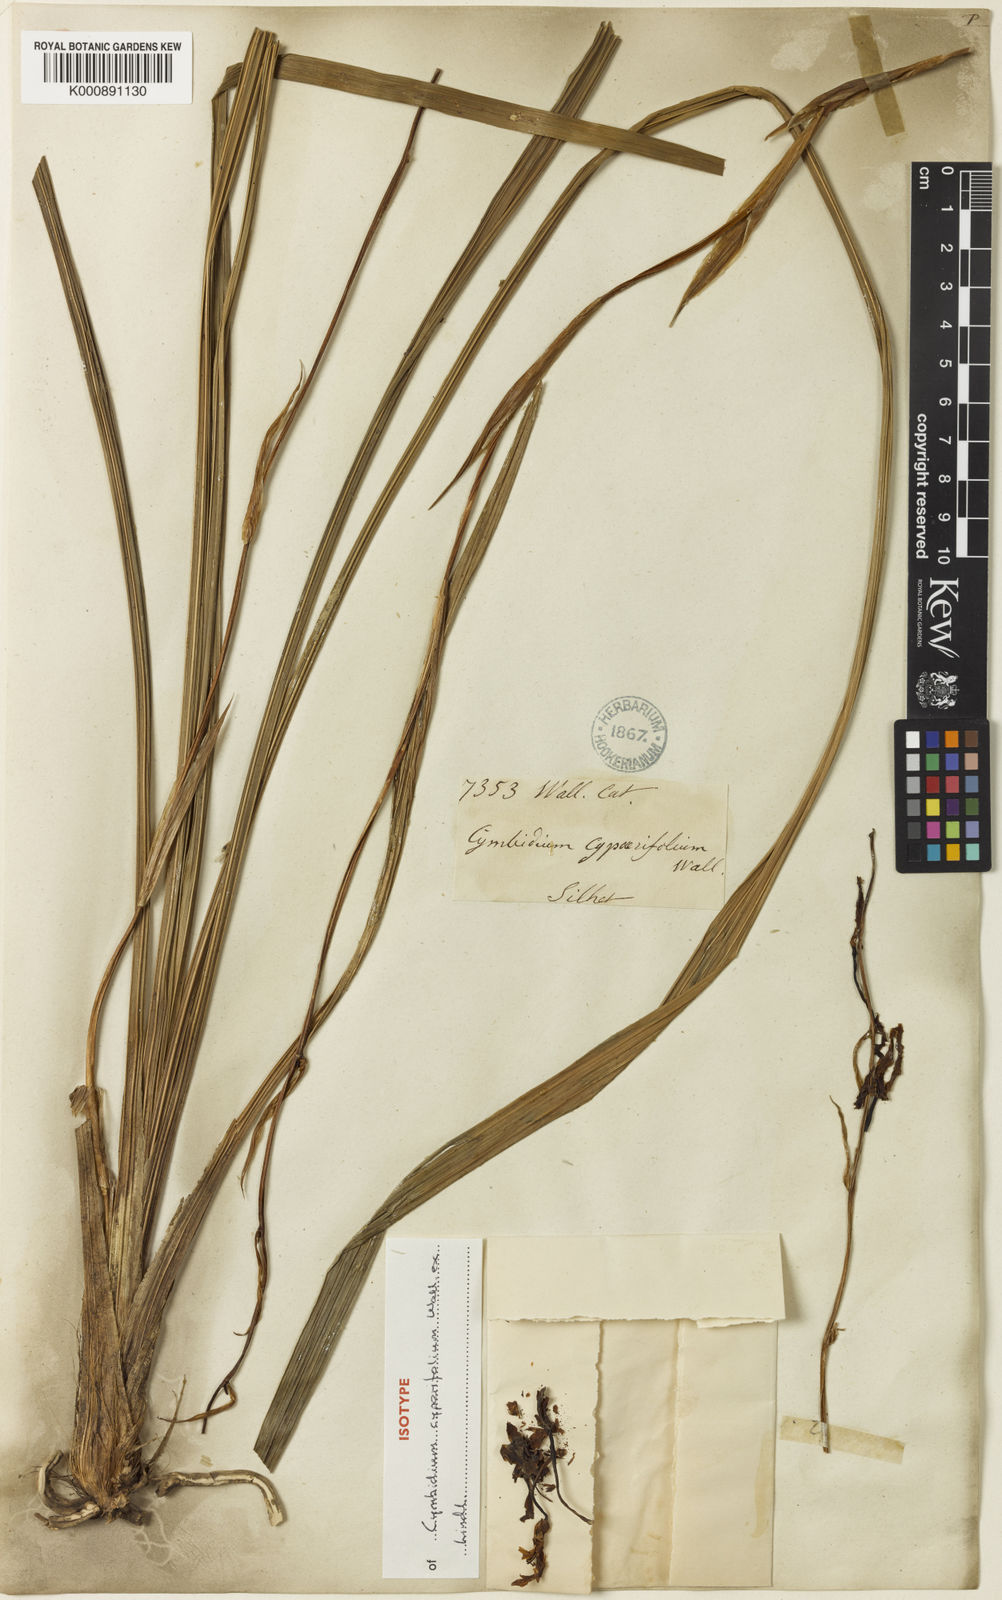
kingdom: Plantae
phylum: Tracheophyta
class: Liliopsida
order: Asparagales
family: Orchidaceae
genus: Cymbidium
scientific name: Cymbidium cyperifolium
